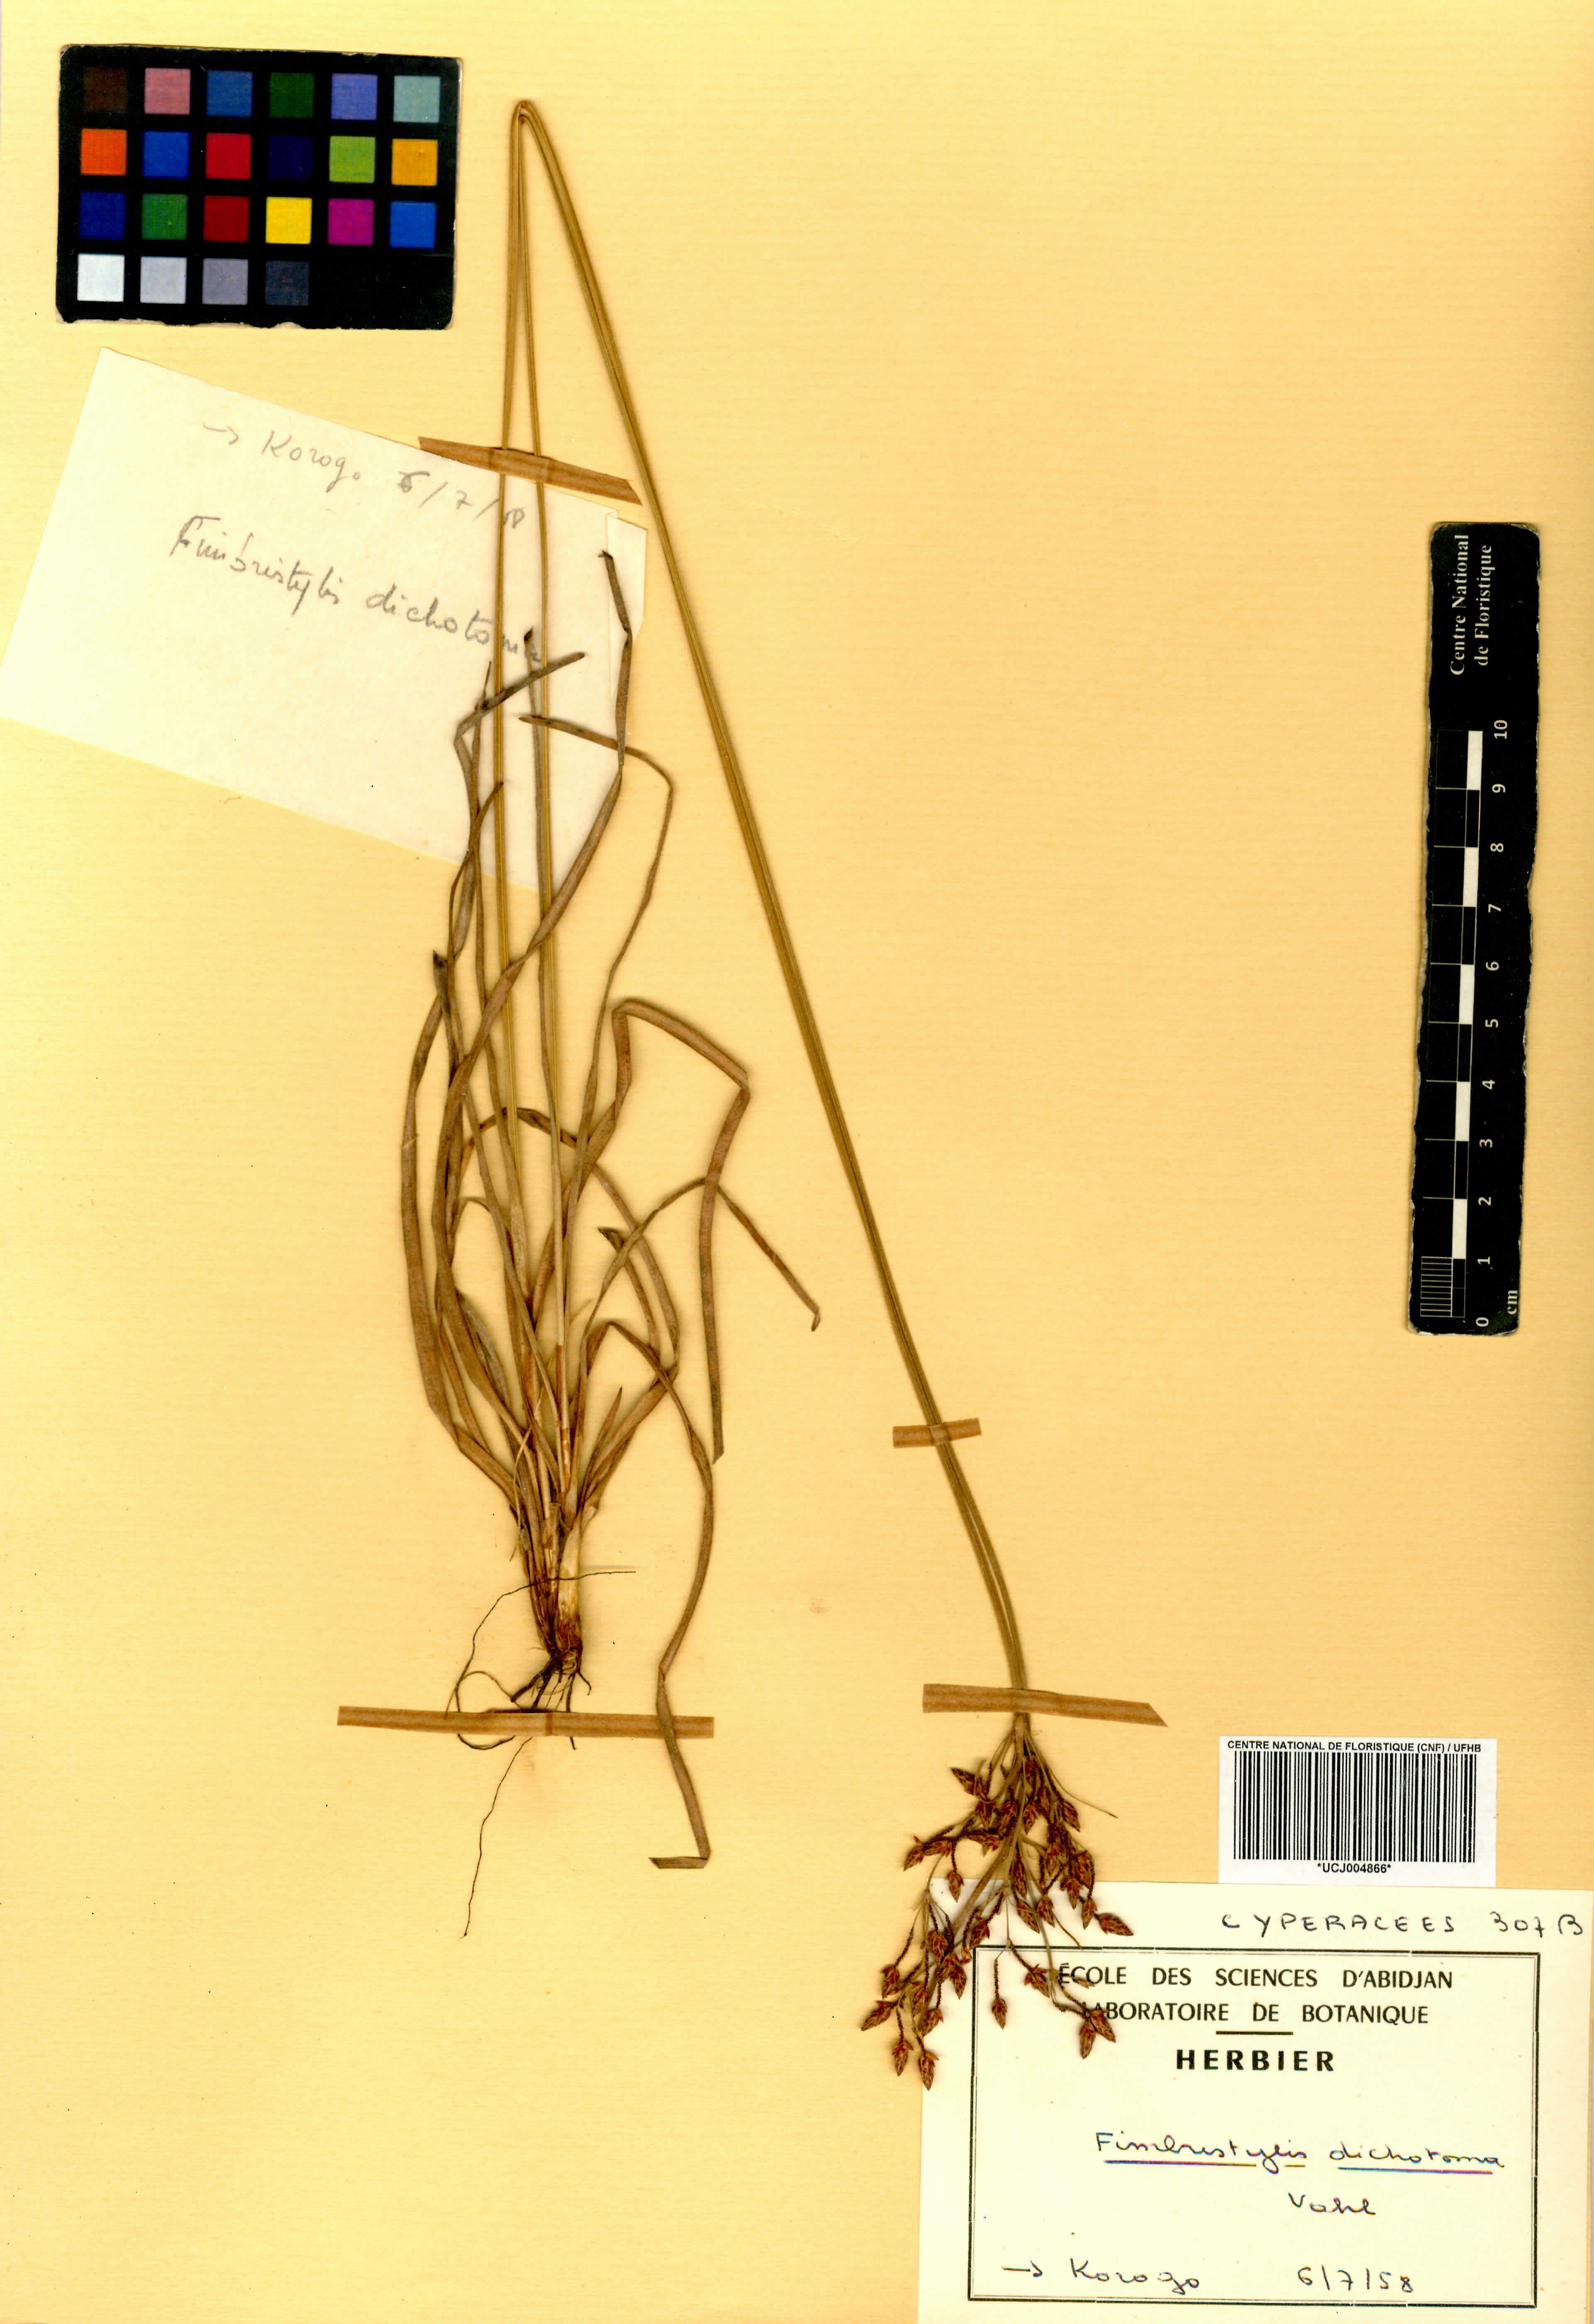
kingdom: Plantae
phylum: Tracheophyta
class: Liliopsida
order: Poales
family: Cyperaceae
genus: Fimbristylis
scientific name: Fimbristylis dichotoma
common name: Forked fimbry
